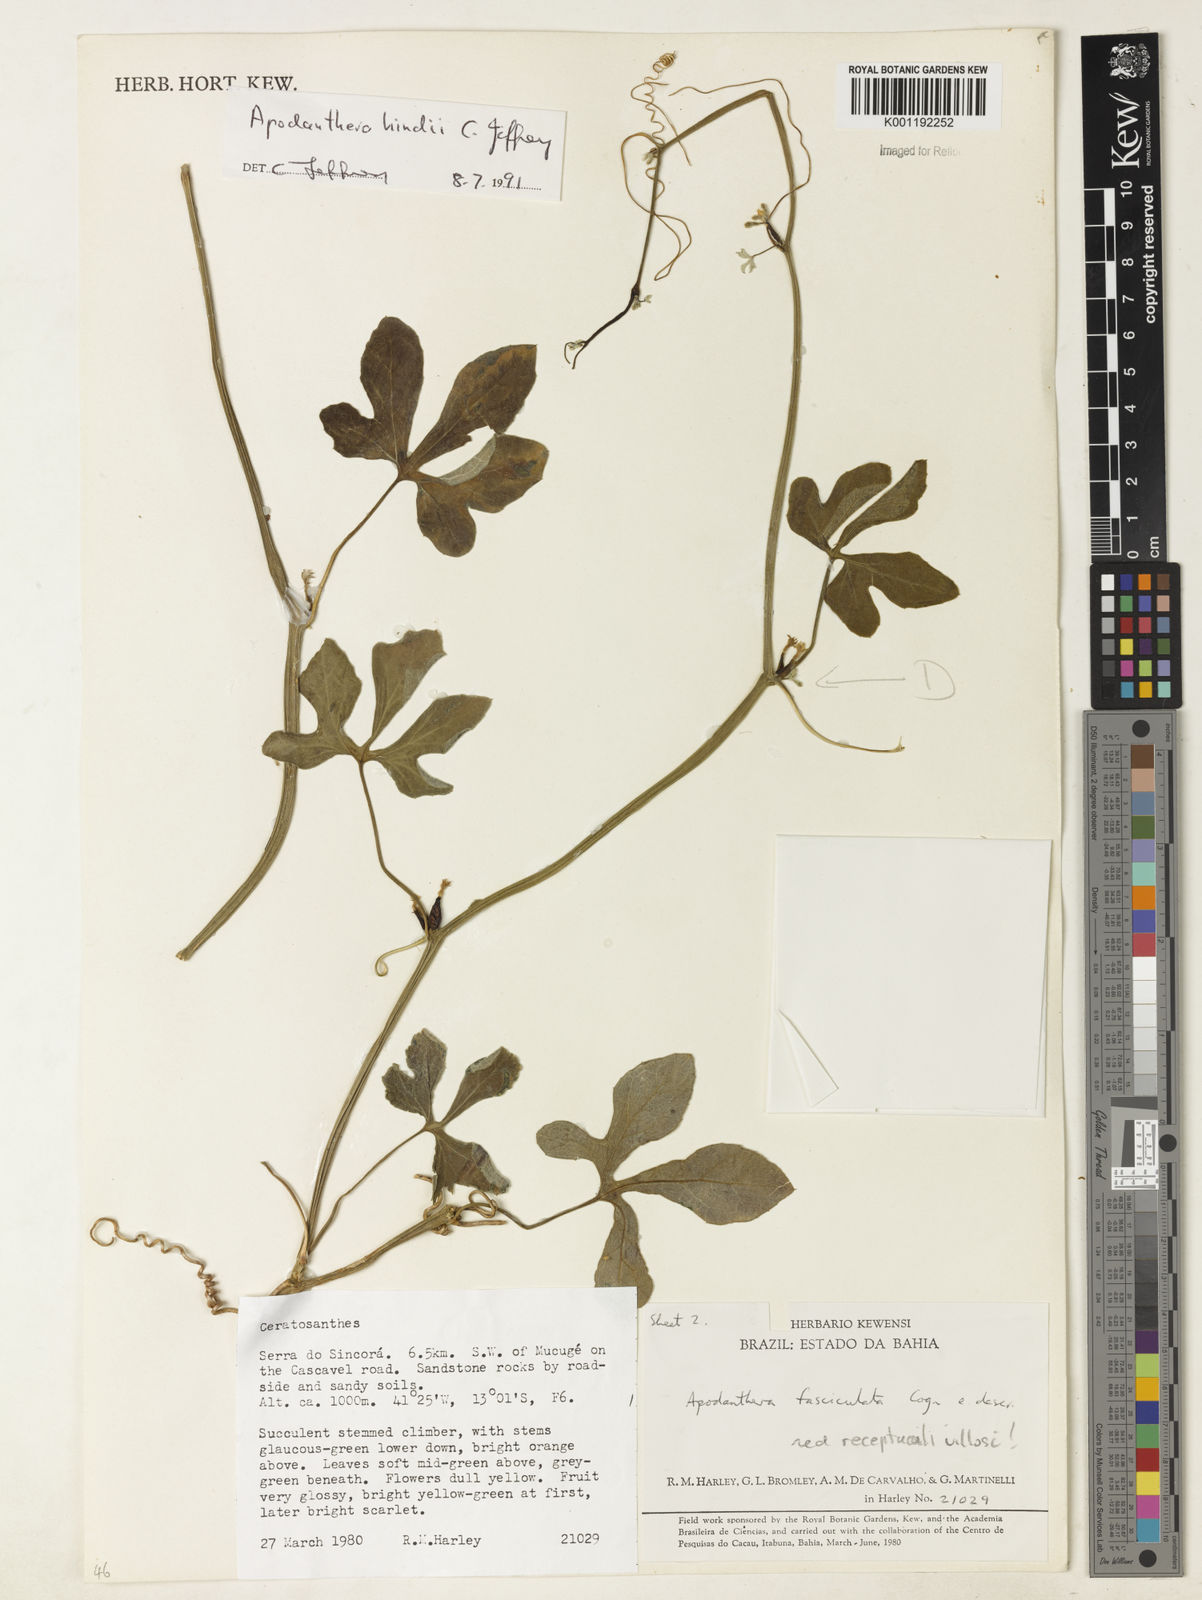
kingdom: Plantae
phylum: Tracheophyta
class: Magnoliopsida
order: Cucurbitales
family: Cucurbitaceae
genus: Apodanthera
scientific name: Apodanthera hindii
